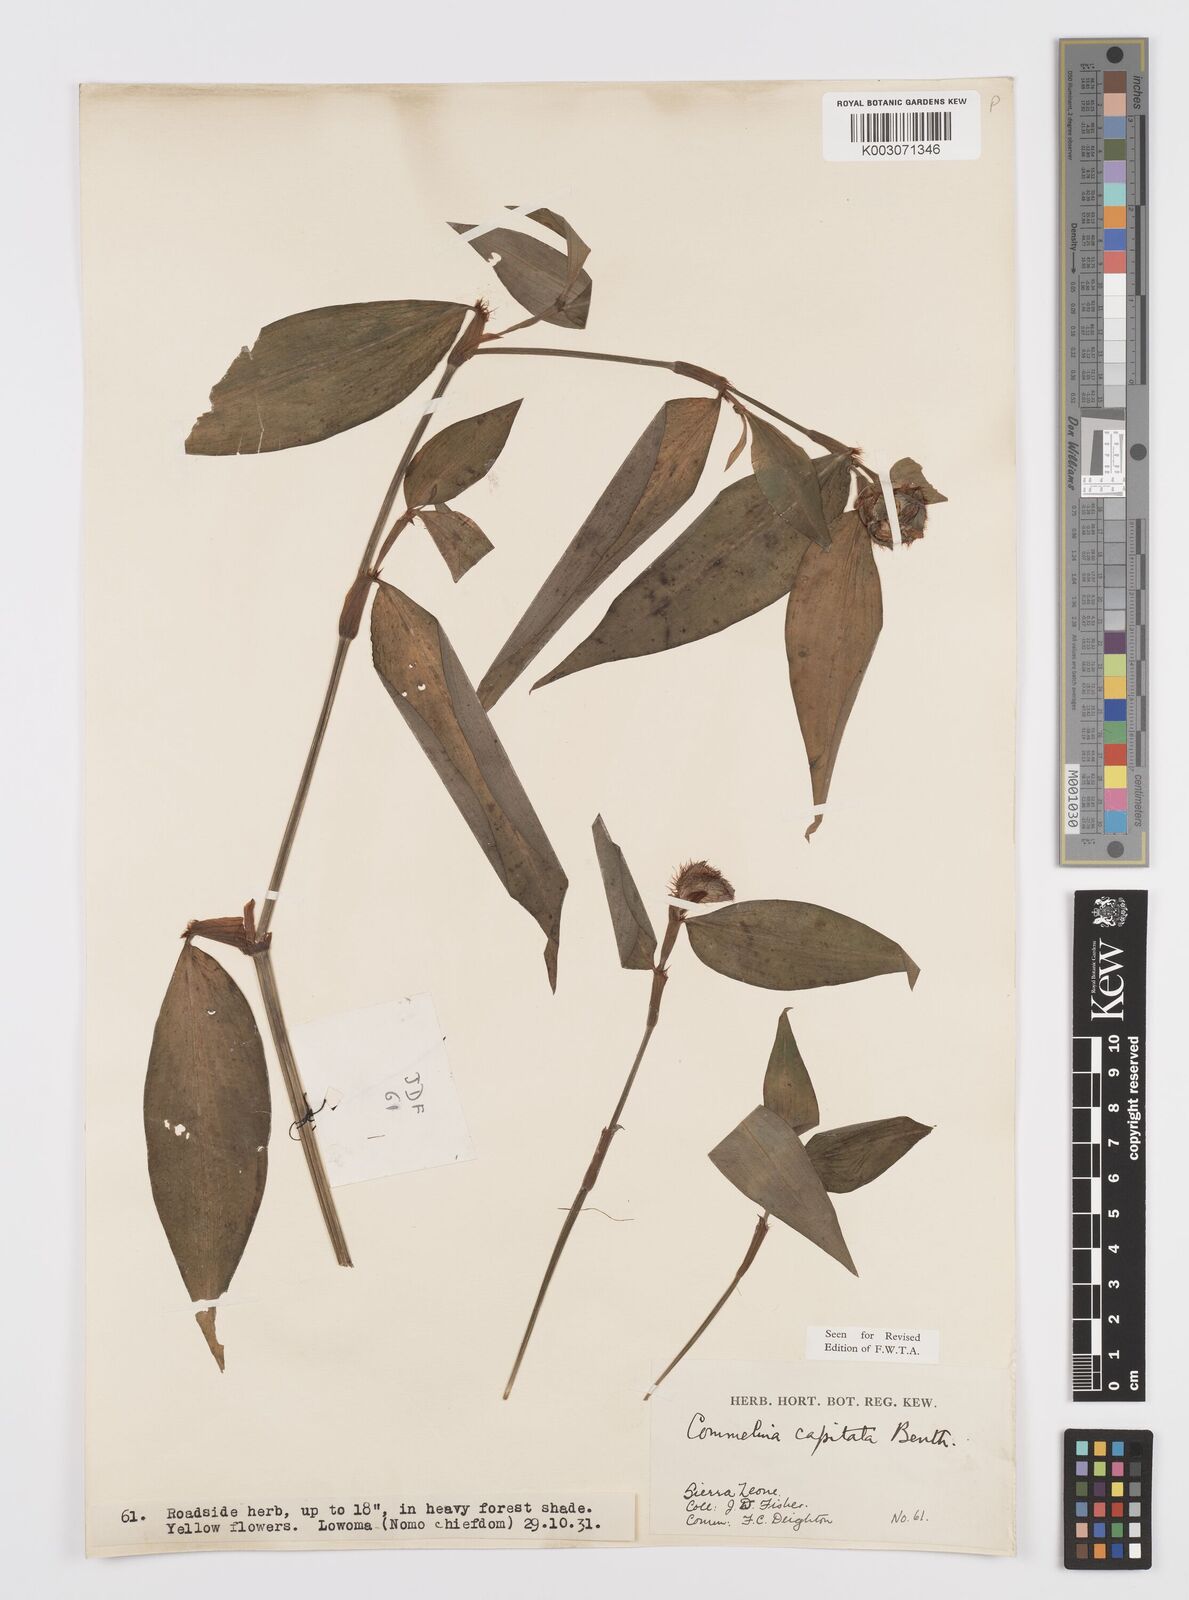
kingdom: Plantae
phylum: Tracheophyta
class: Liliopsida
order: Commelinales
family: Commelinaceae
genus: Commelina
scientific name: Commelina capitata
